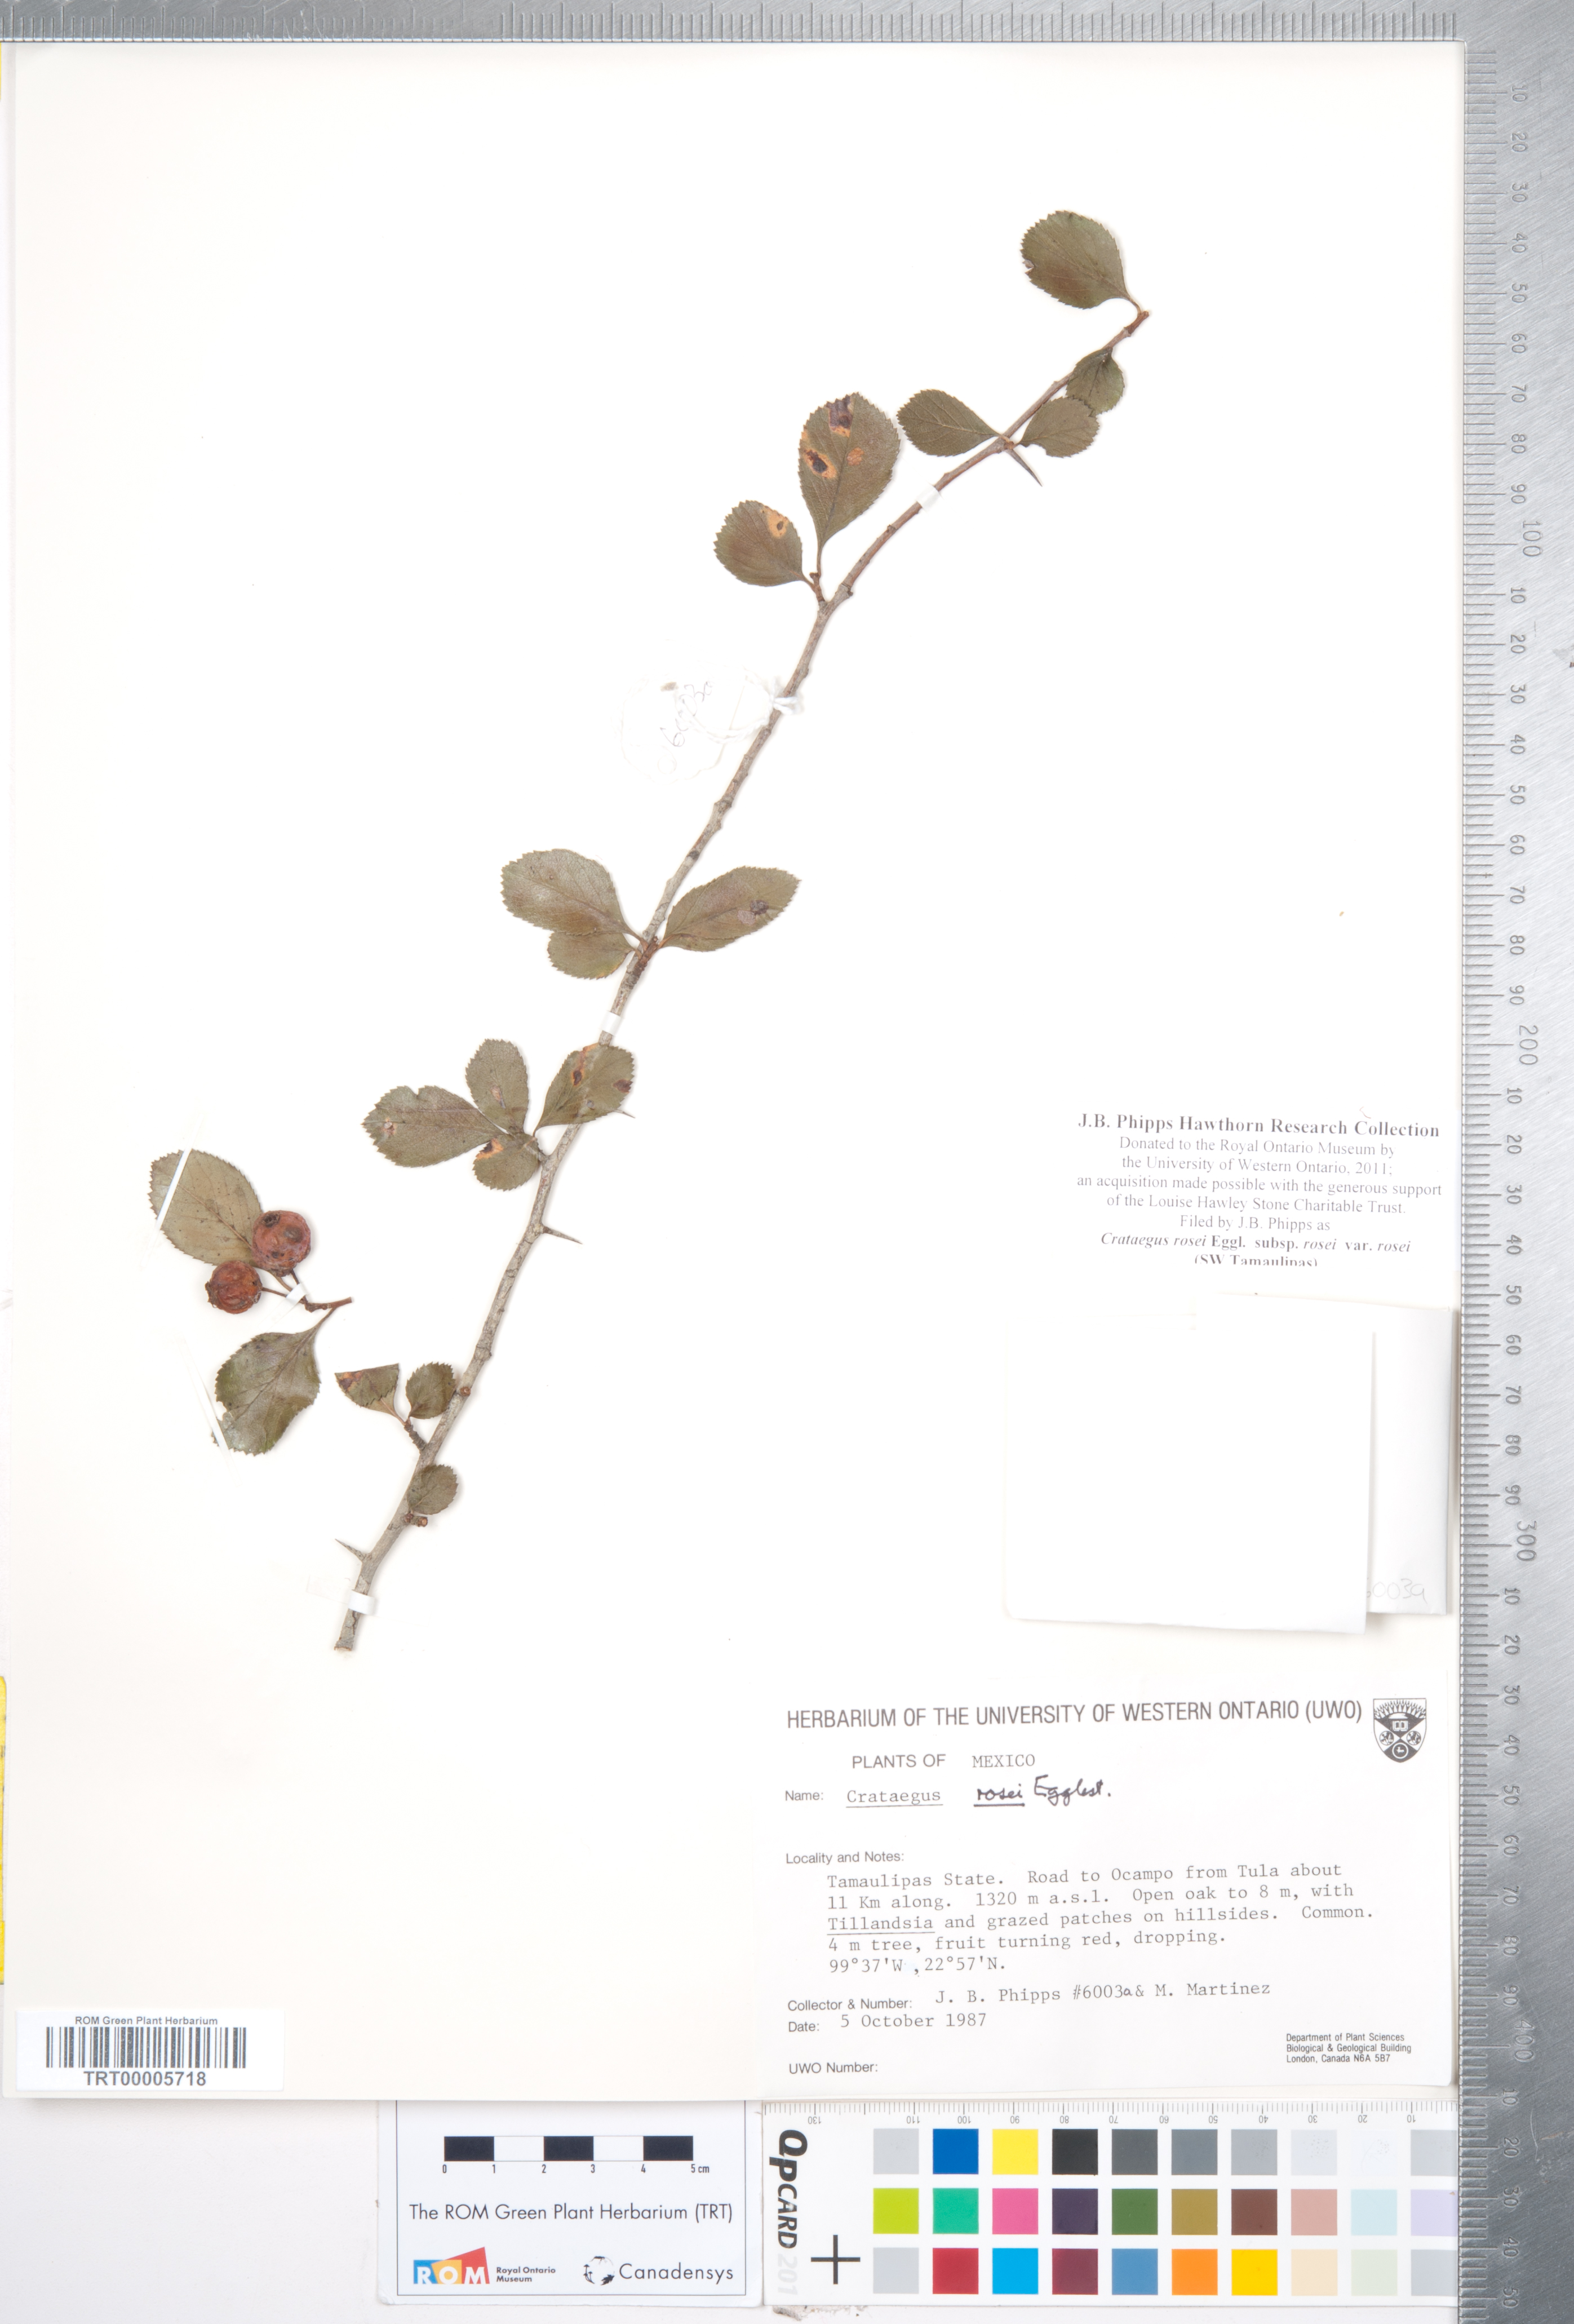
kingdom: Plantae
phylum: Tracheophyta
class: Magnoliopsida
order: Rosales
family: Rosaceae
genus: Crataegus
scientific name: Crataegus rosei
